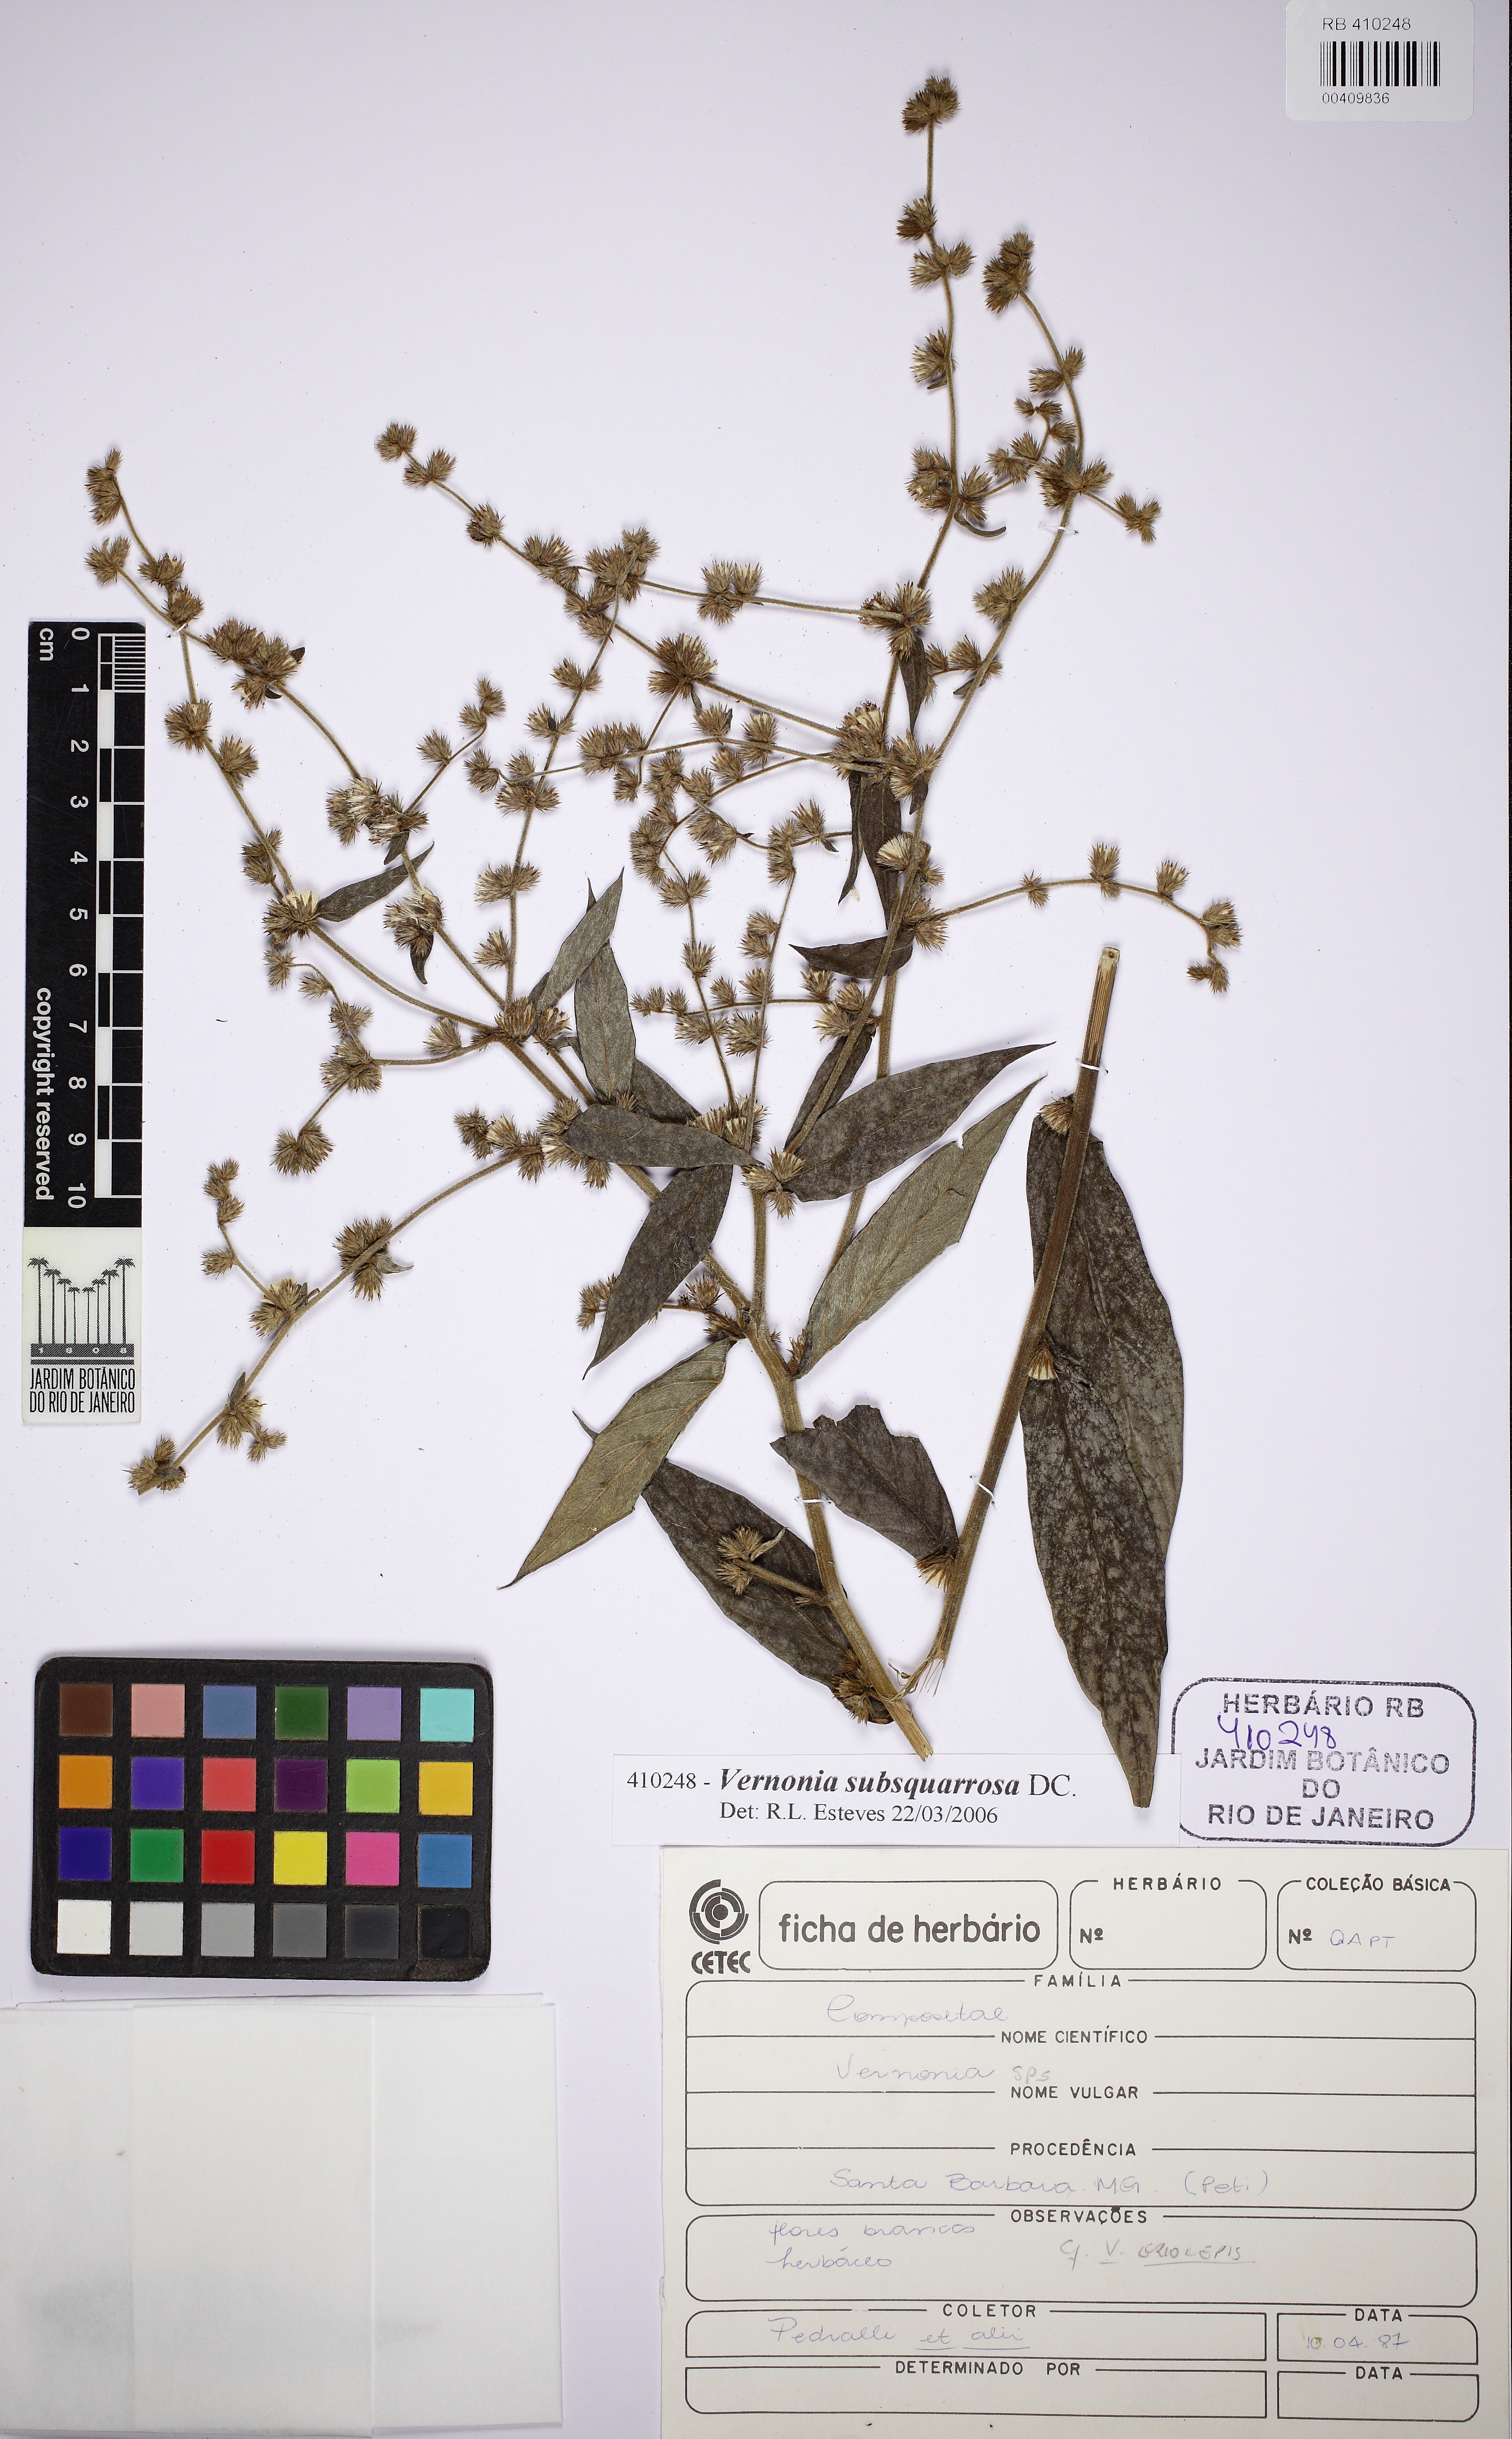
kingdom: Plantae
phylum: Tracheophyta
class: Magnoliopsida
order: Asterales
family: Asteraceae
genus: Lessingianthus
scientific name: Lessingianthus plantaginoides
